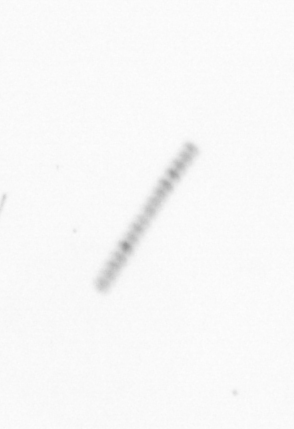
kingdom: Chromista
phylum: Ochrophyta
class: Bacillariophyceae
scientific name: Bacillariophyceae
